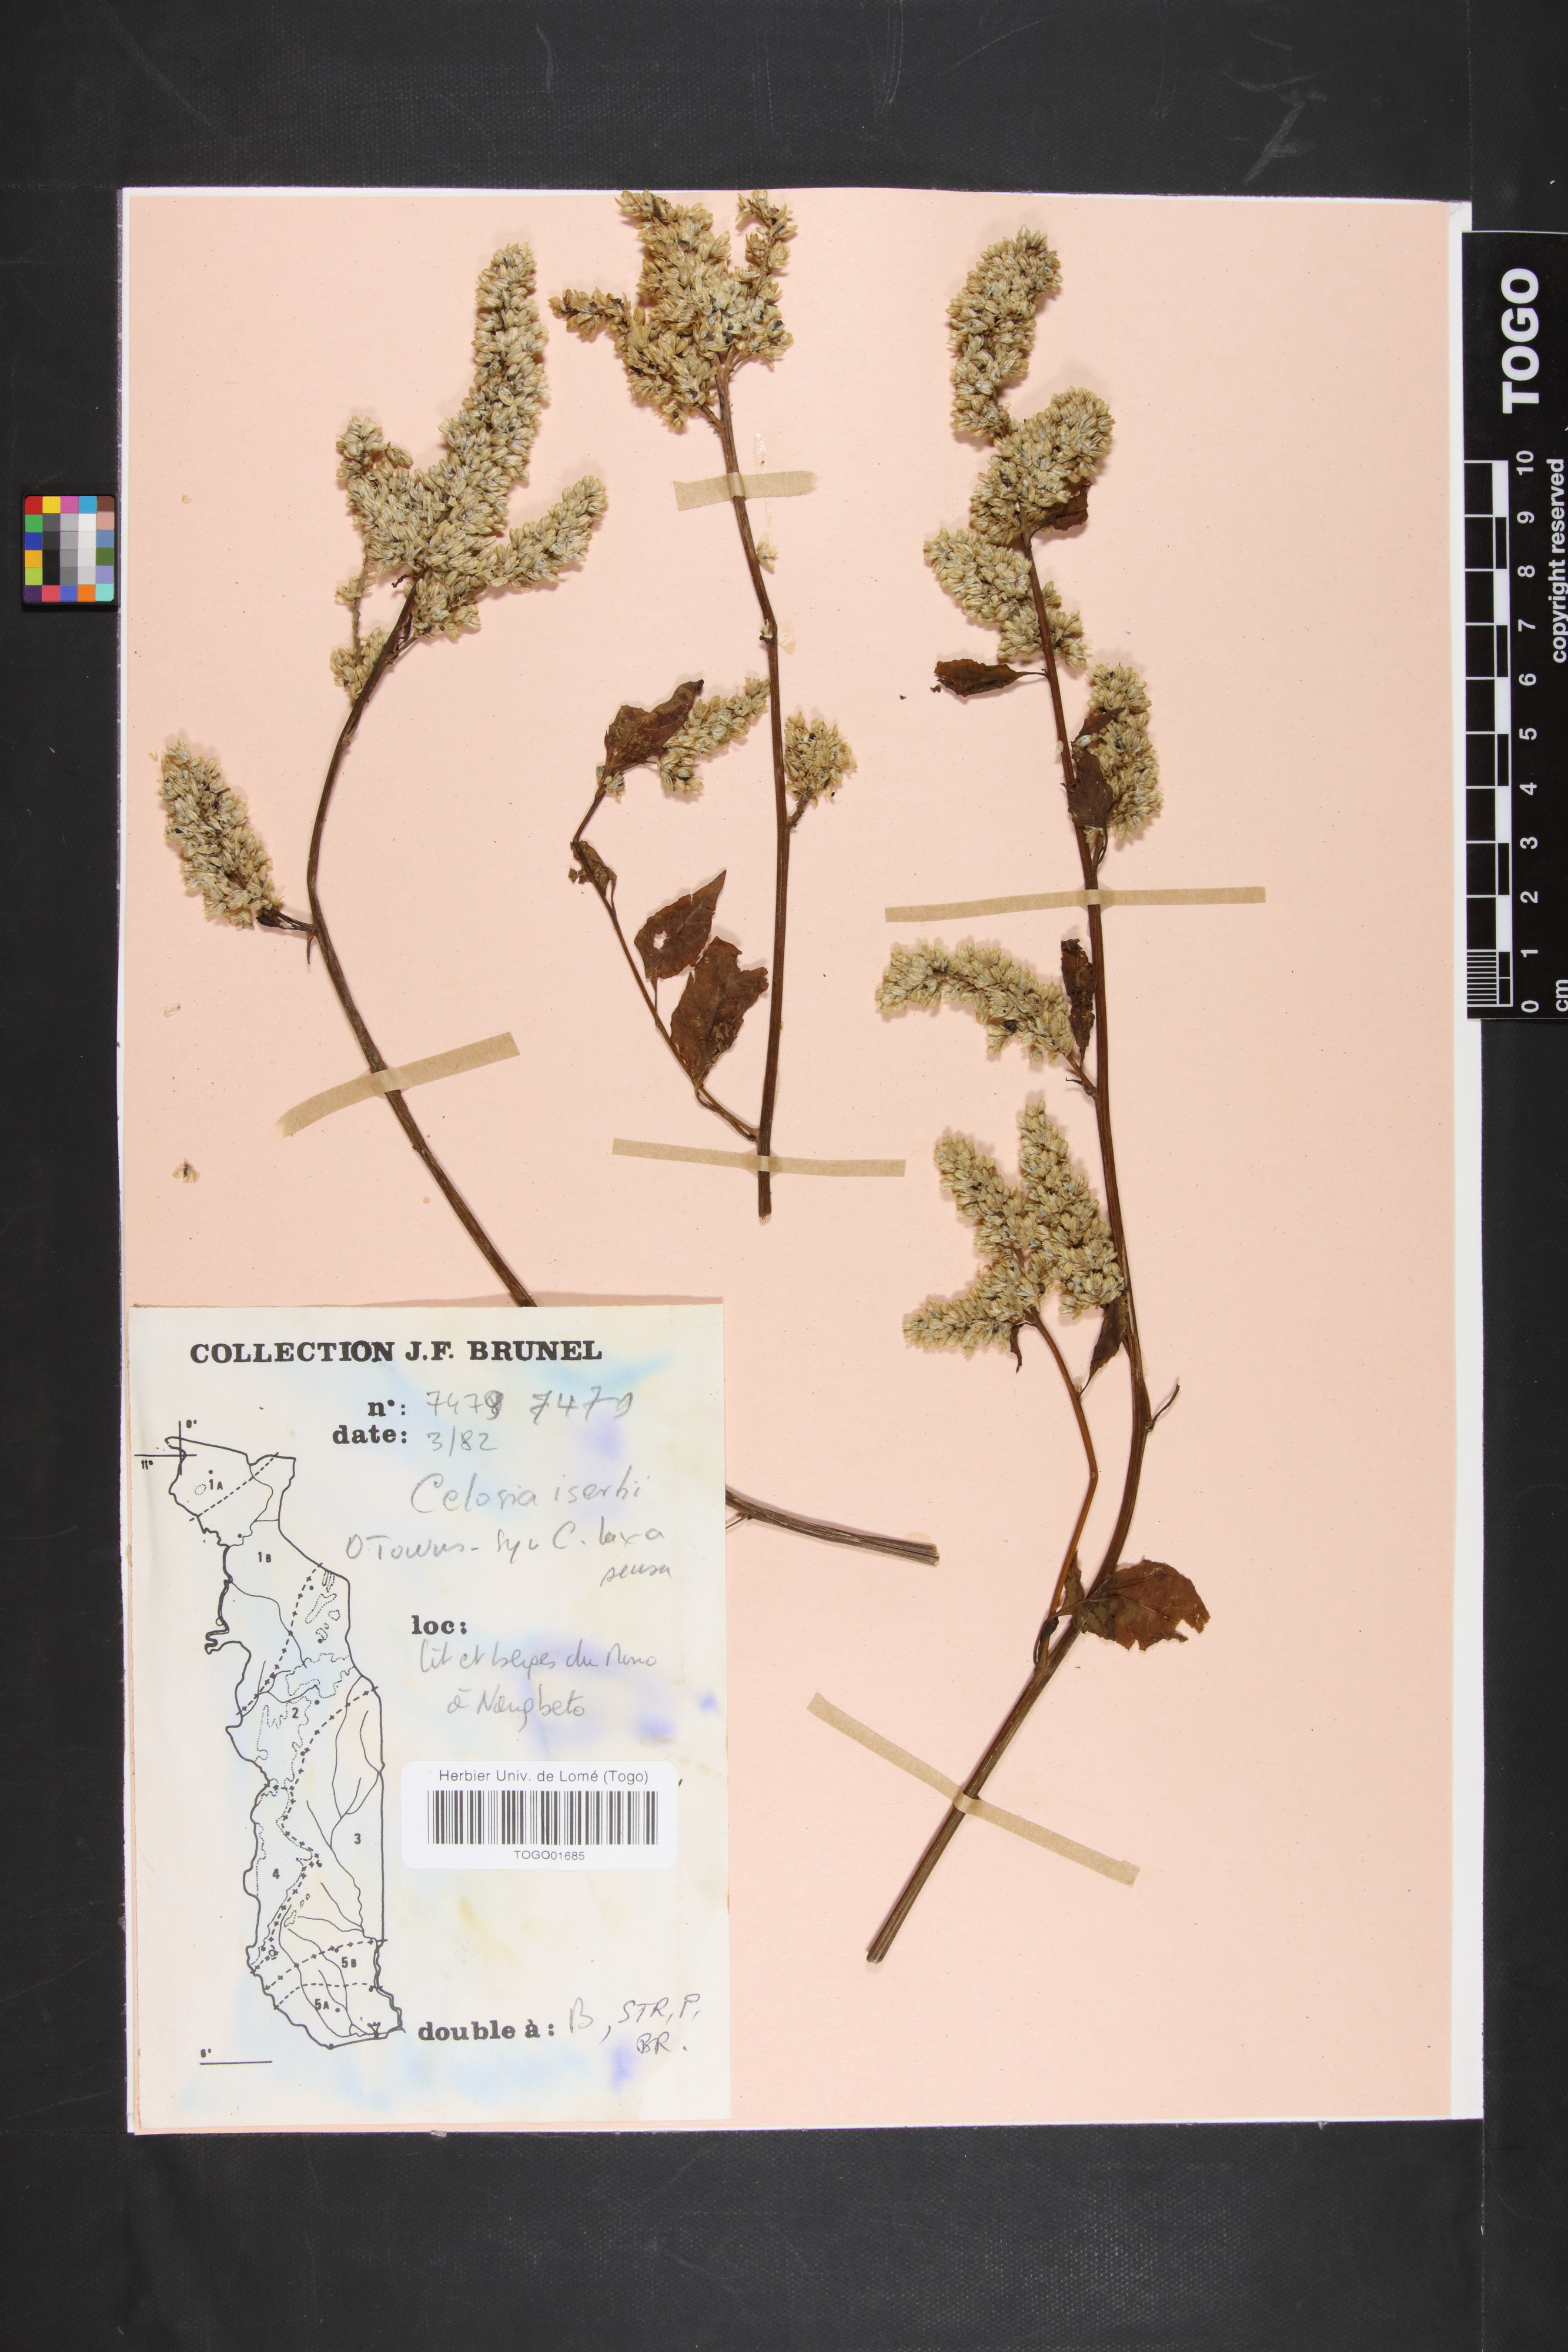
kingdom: Plantae
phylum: Tracheophyta
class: Magnoliopsida
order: Caryophyllales
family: Amaranthaceae
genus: Celosia
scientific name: Celosia isertii
